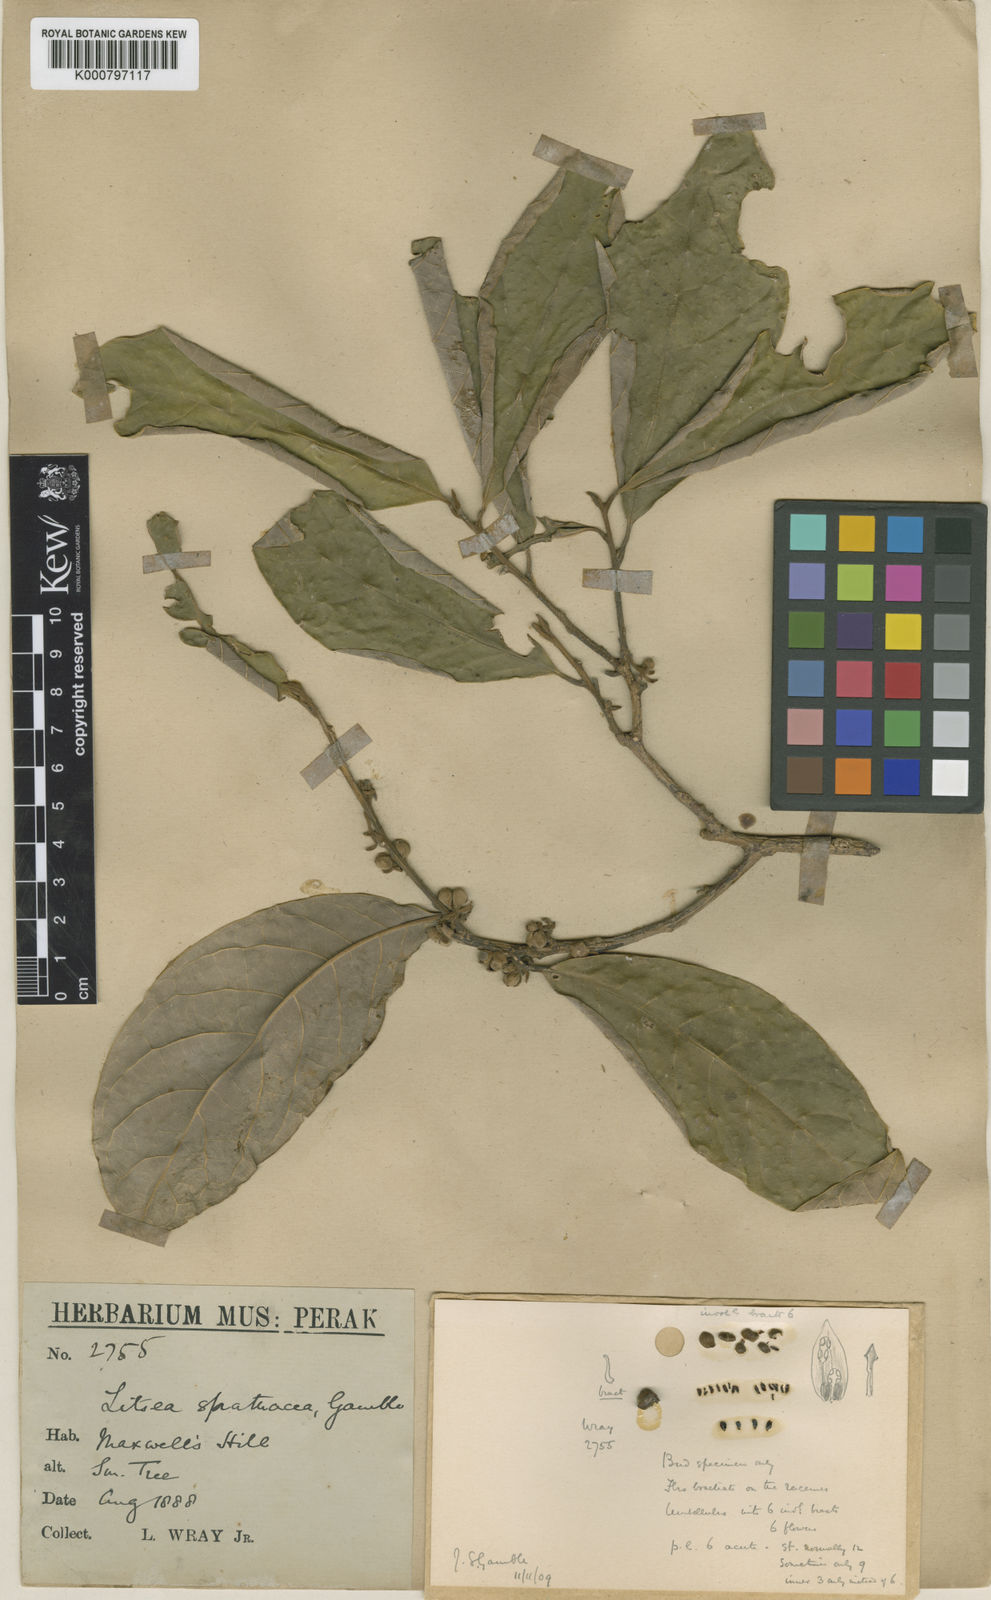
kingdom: Plantae
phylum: Tracheophyta
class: Magnoliopsida
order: Laurales
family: Lauraceae
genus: Litsea
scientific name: Litsea spathacea
